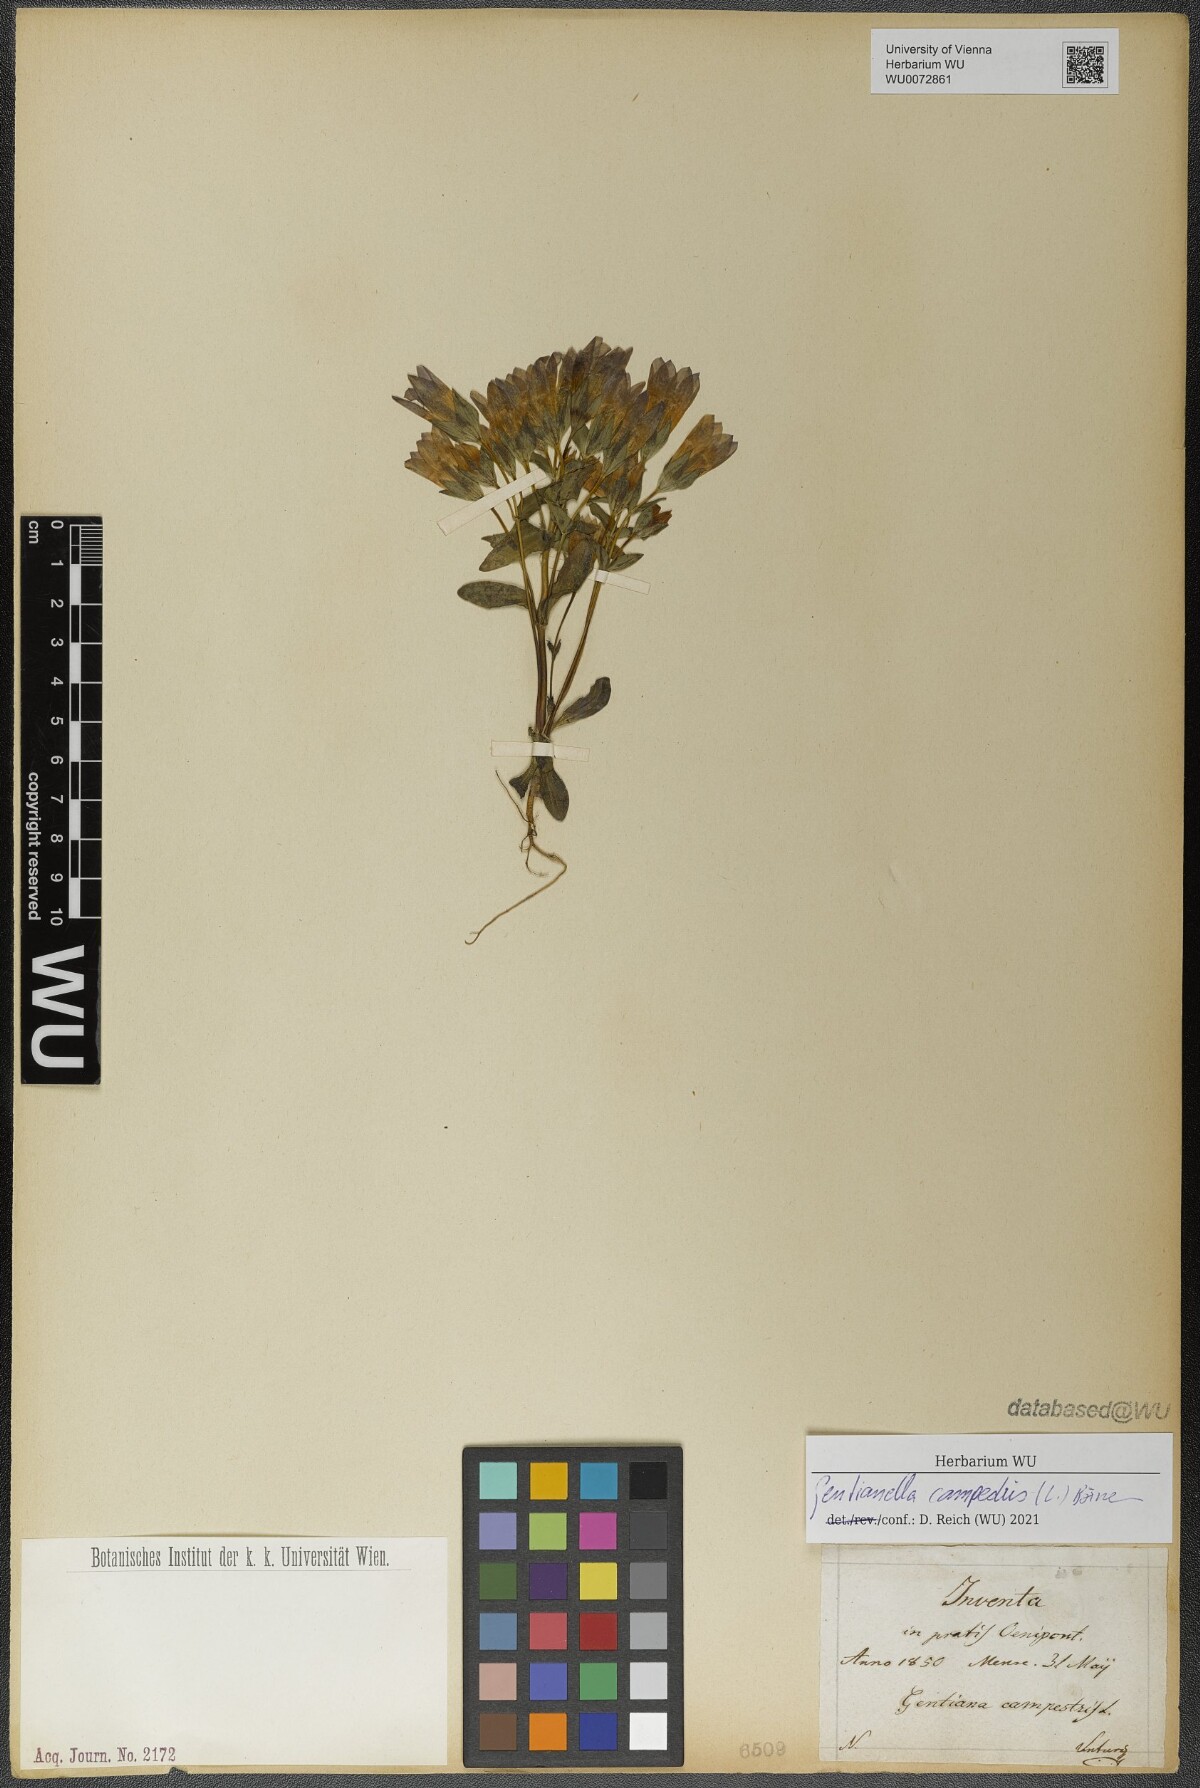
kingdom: Plantae
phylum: Tracheophyta
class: Magnoliopsida
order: Gentianales
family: Gentianaceae
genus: Gentianella
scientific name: Gentianella campestris
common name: Field gentian
